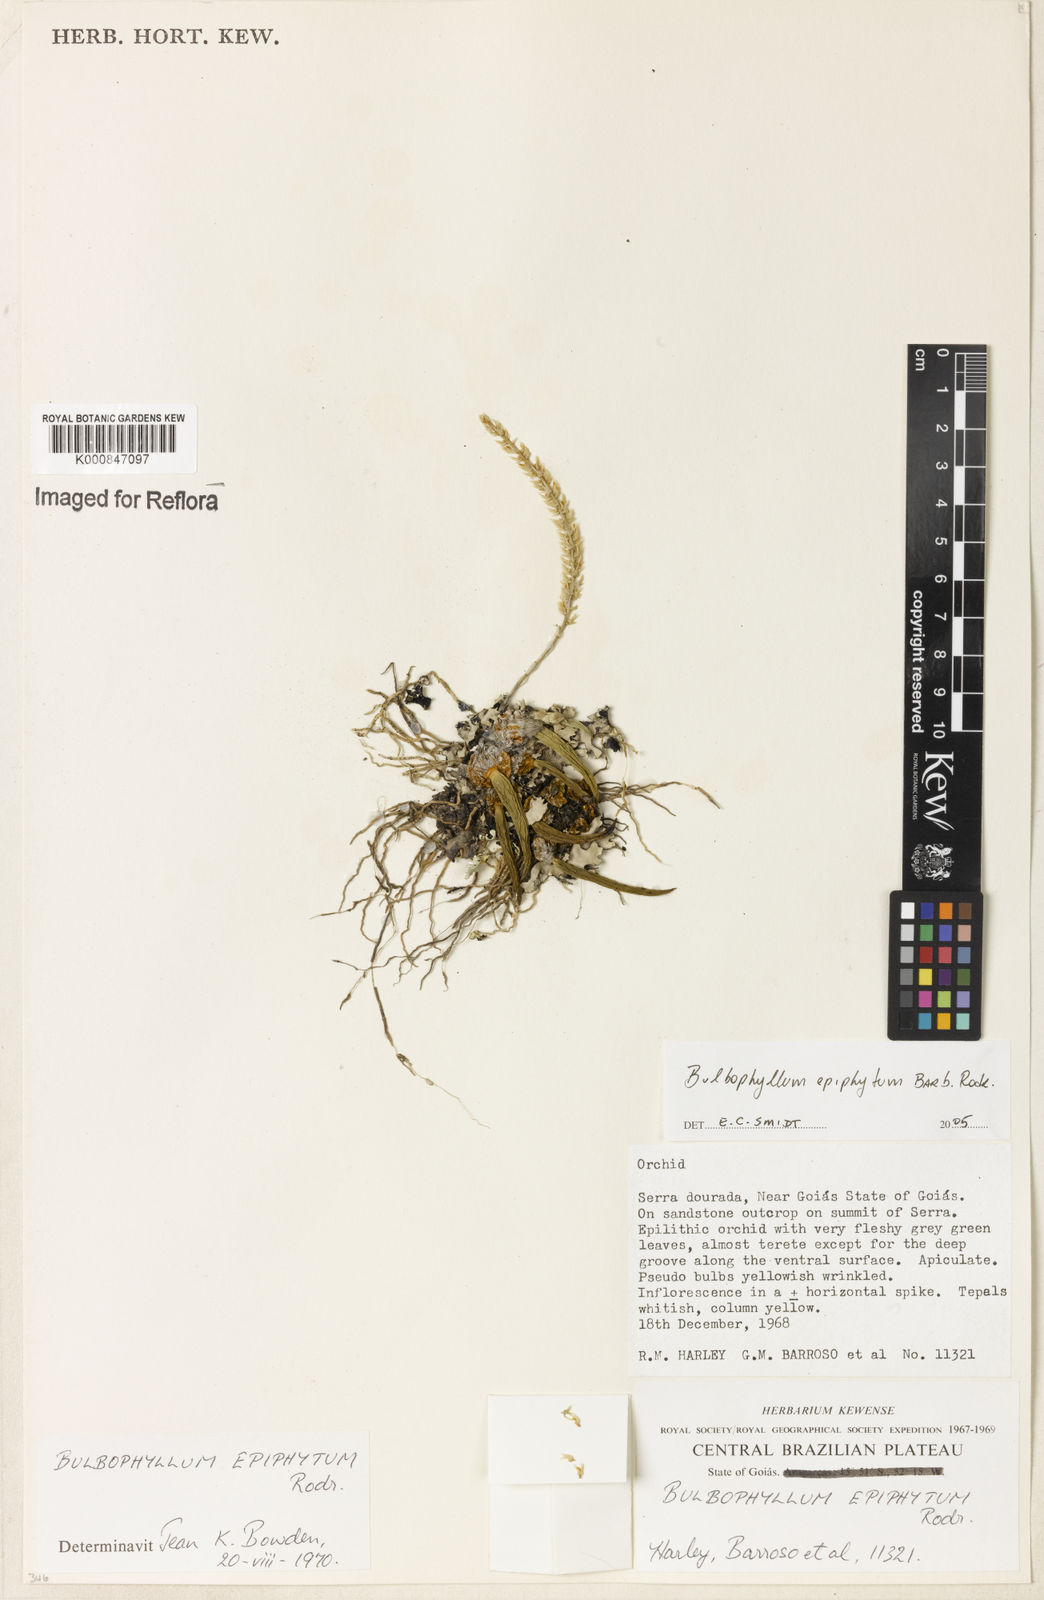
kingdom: Plantae
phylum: Tracheophyta
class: Liliopsida
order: Asparagales
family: Orchidaceae
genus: Bulbophyllum
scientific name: Bulbophyllum epiphytum
